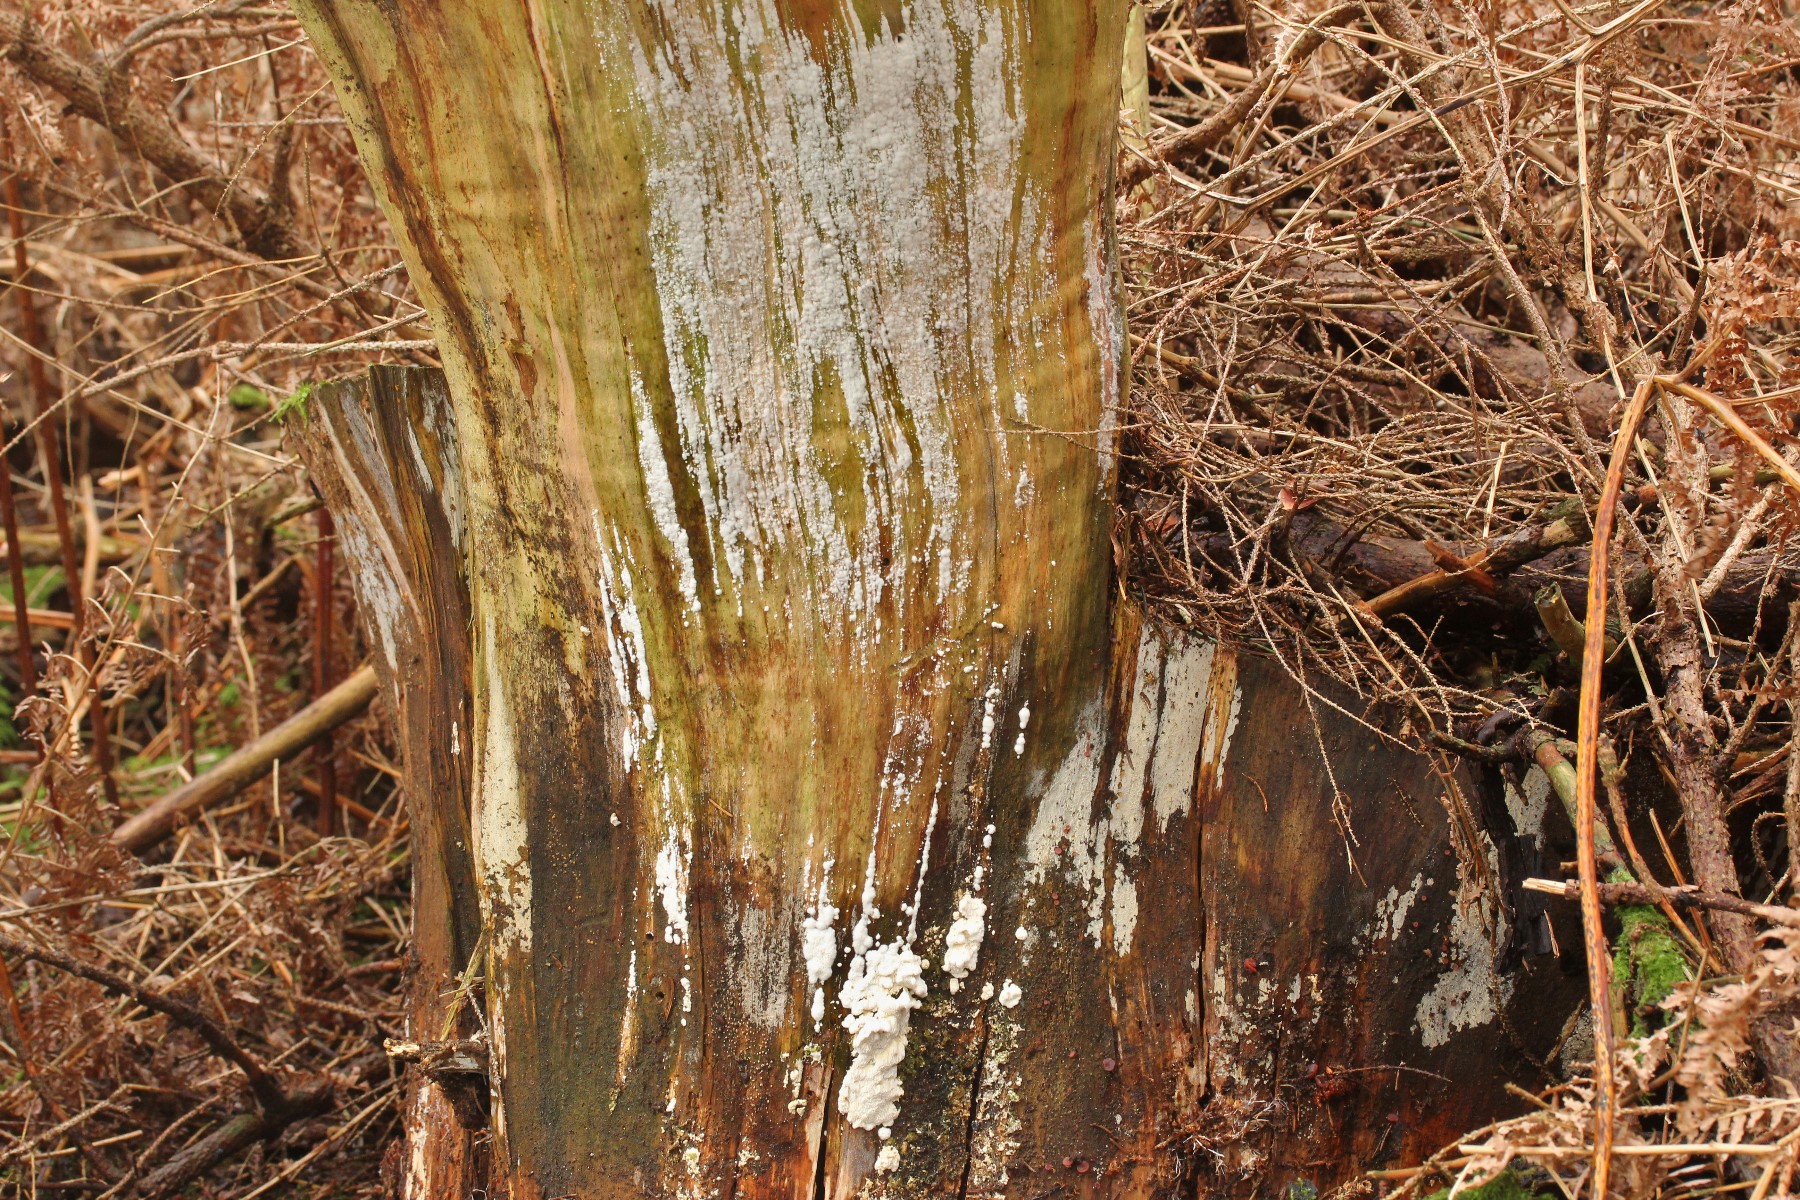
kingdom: Fungi
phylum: Basidiomycota
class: Agaricomycetes
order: Polyporales
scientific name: Polyporales
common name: poresvampordenen
